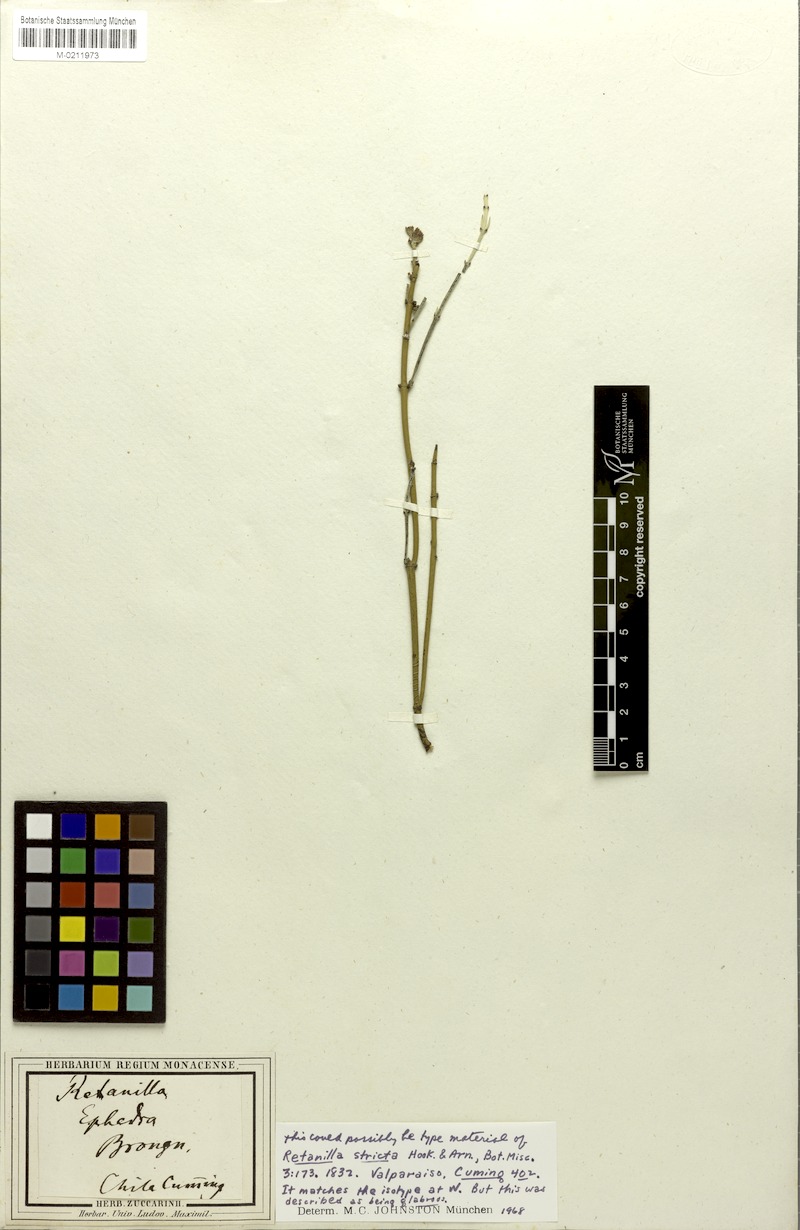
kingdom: Plantae
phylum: Tracheophyta
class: Magnoliopsida
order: Rosales
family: Rhamnaceae
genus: Retanilla
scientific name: Retanilla stricta
